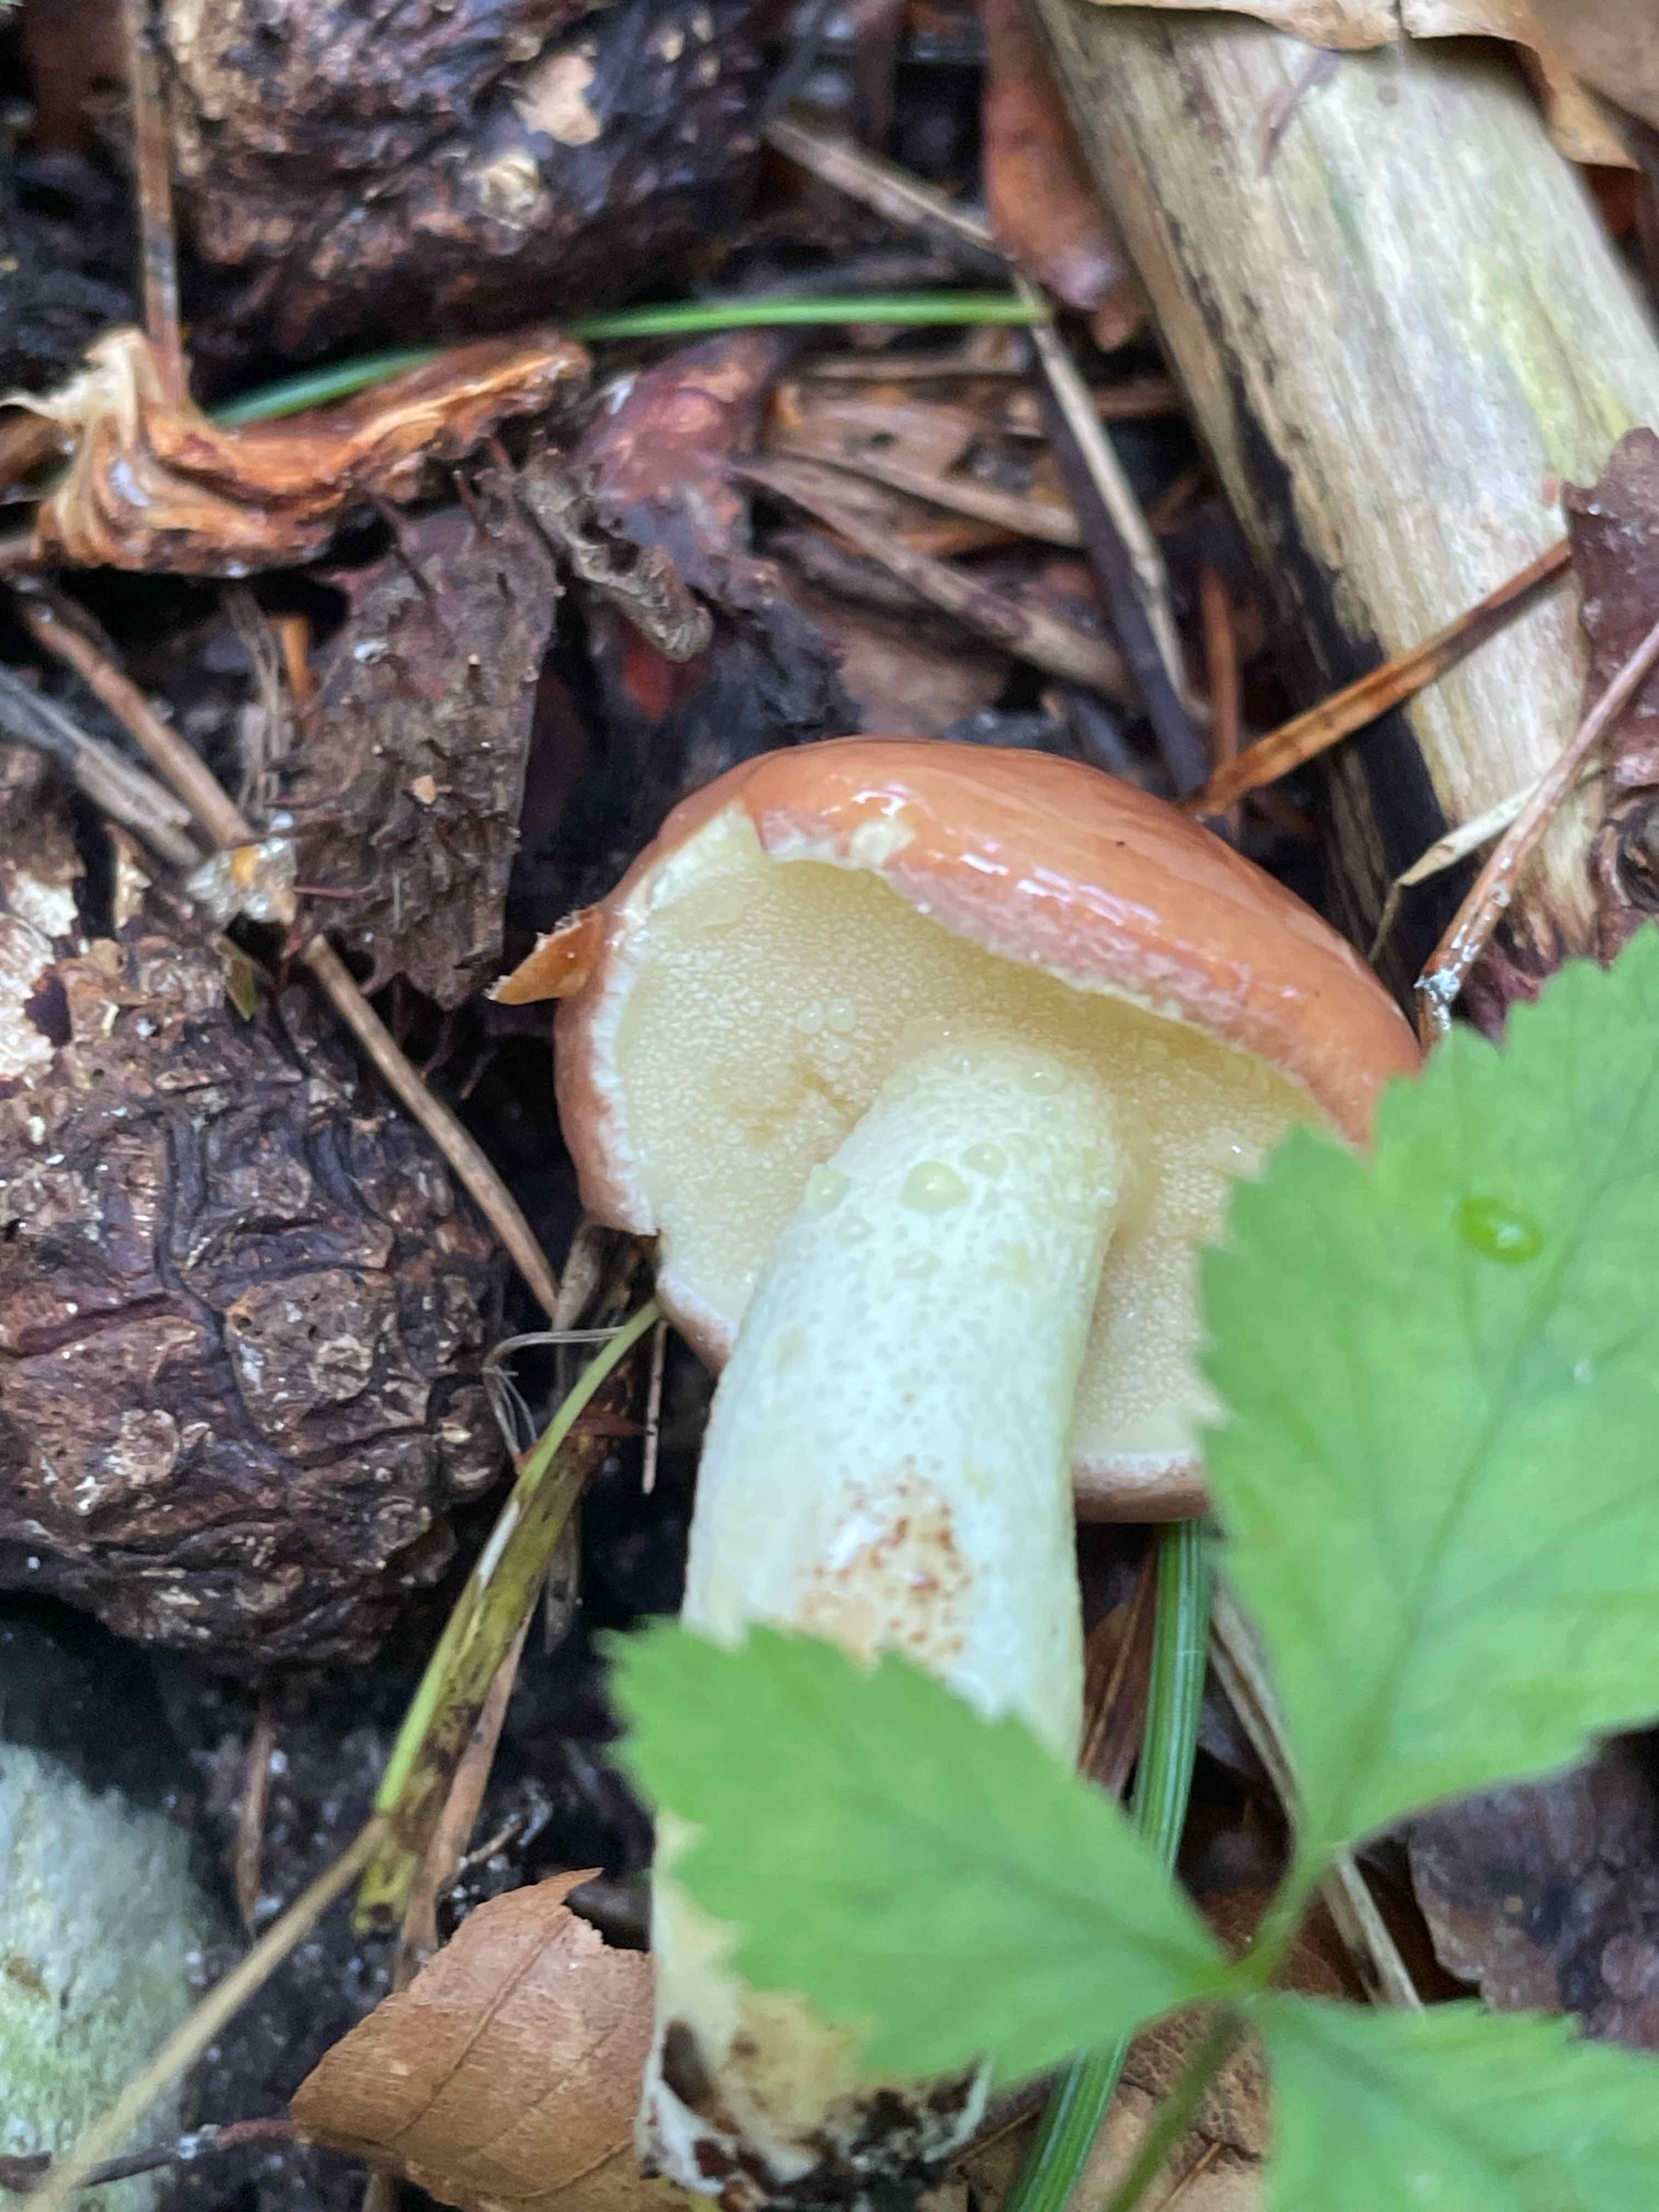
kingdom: Fungi
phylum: Basidiomycota
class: Agaricomycetes
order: Boletales
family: Suillaceae
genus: Suillus
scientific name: Suillus granulatus
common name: kornet slimrørhat
